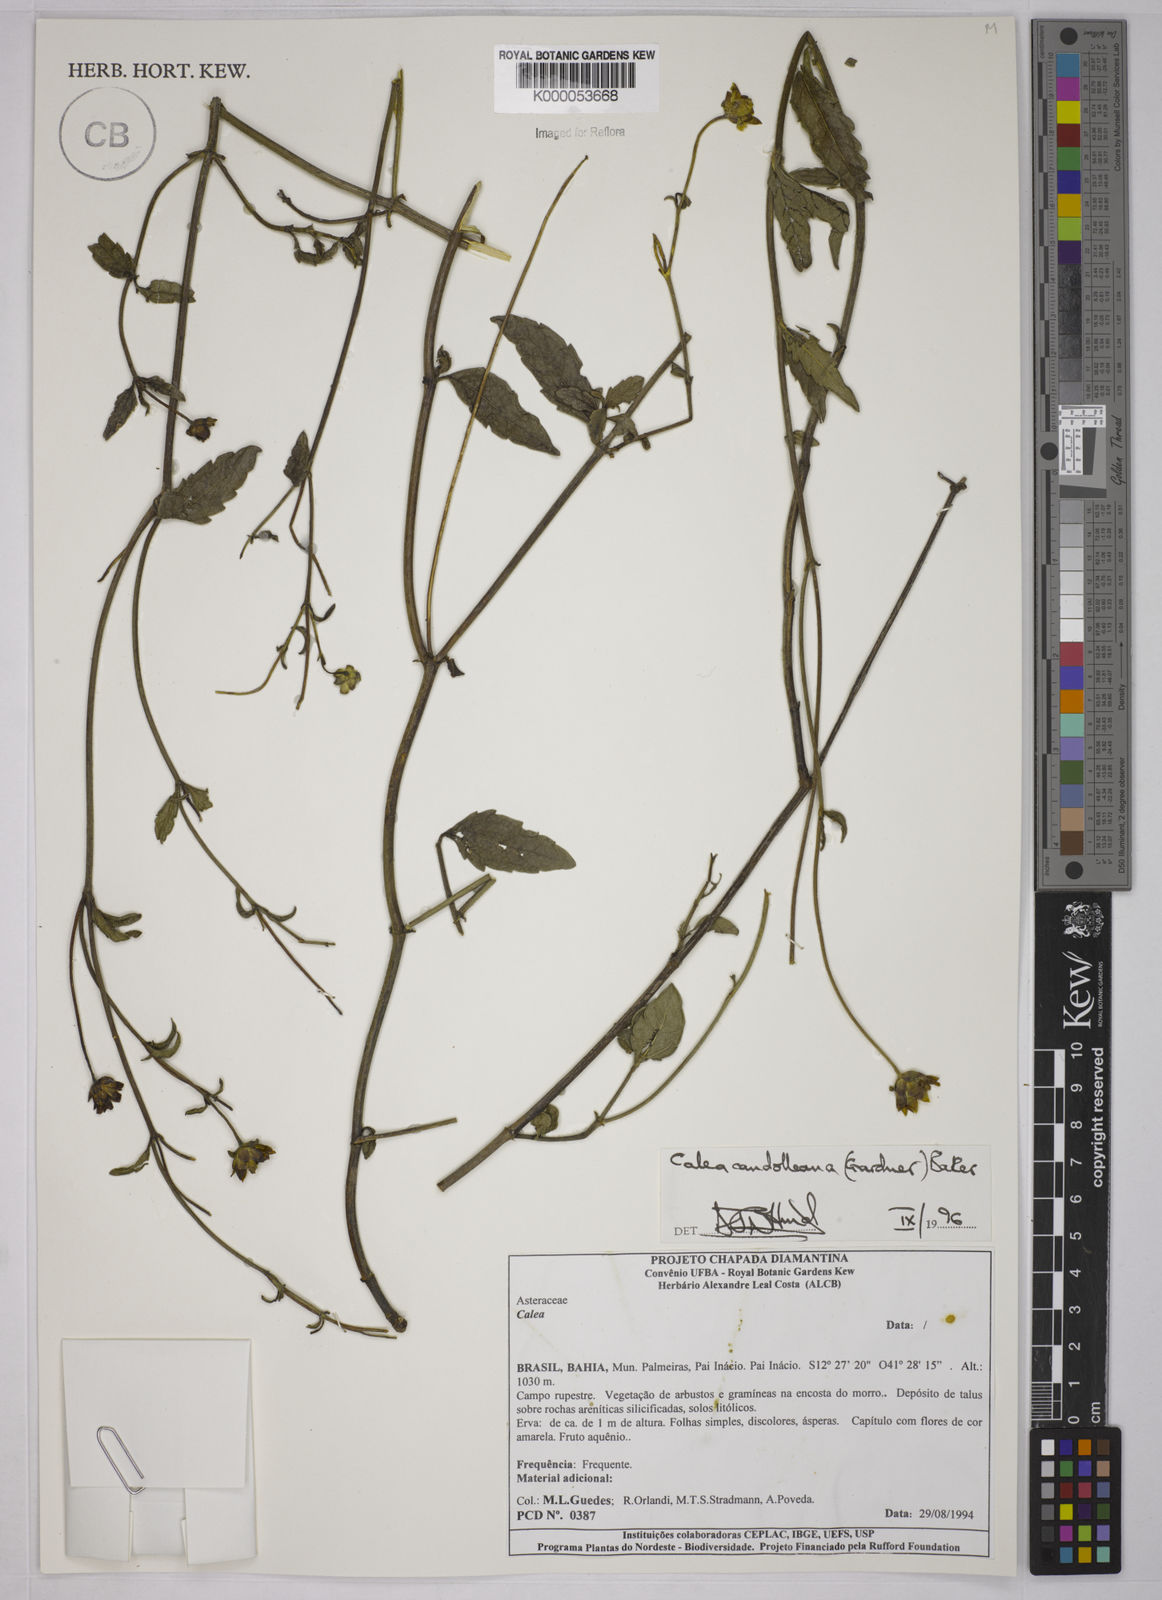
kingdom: Plantae
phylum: Tracheophyta
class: Magnoliopsida
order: Asterales
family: Asteraceae
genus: Calea
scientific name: Calea candolleana
